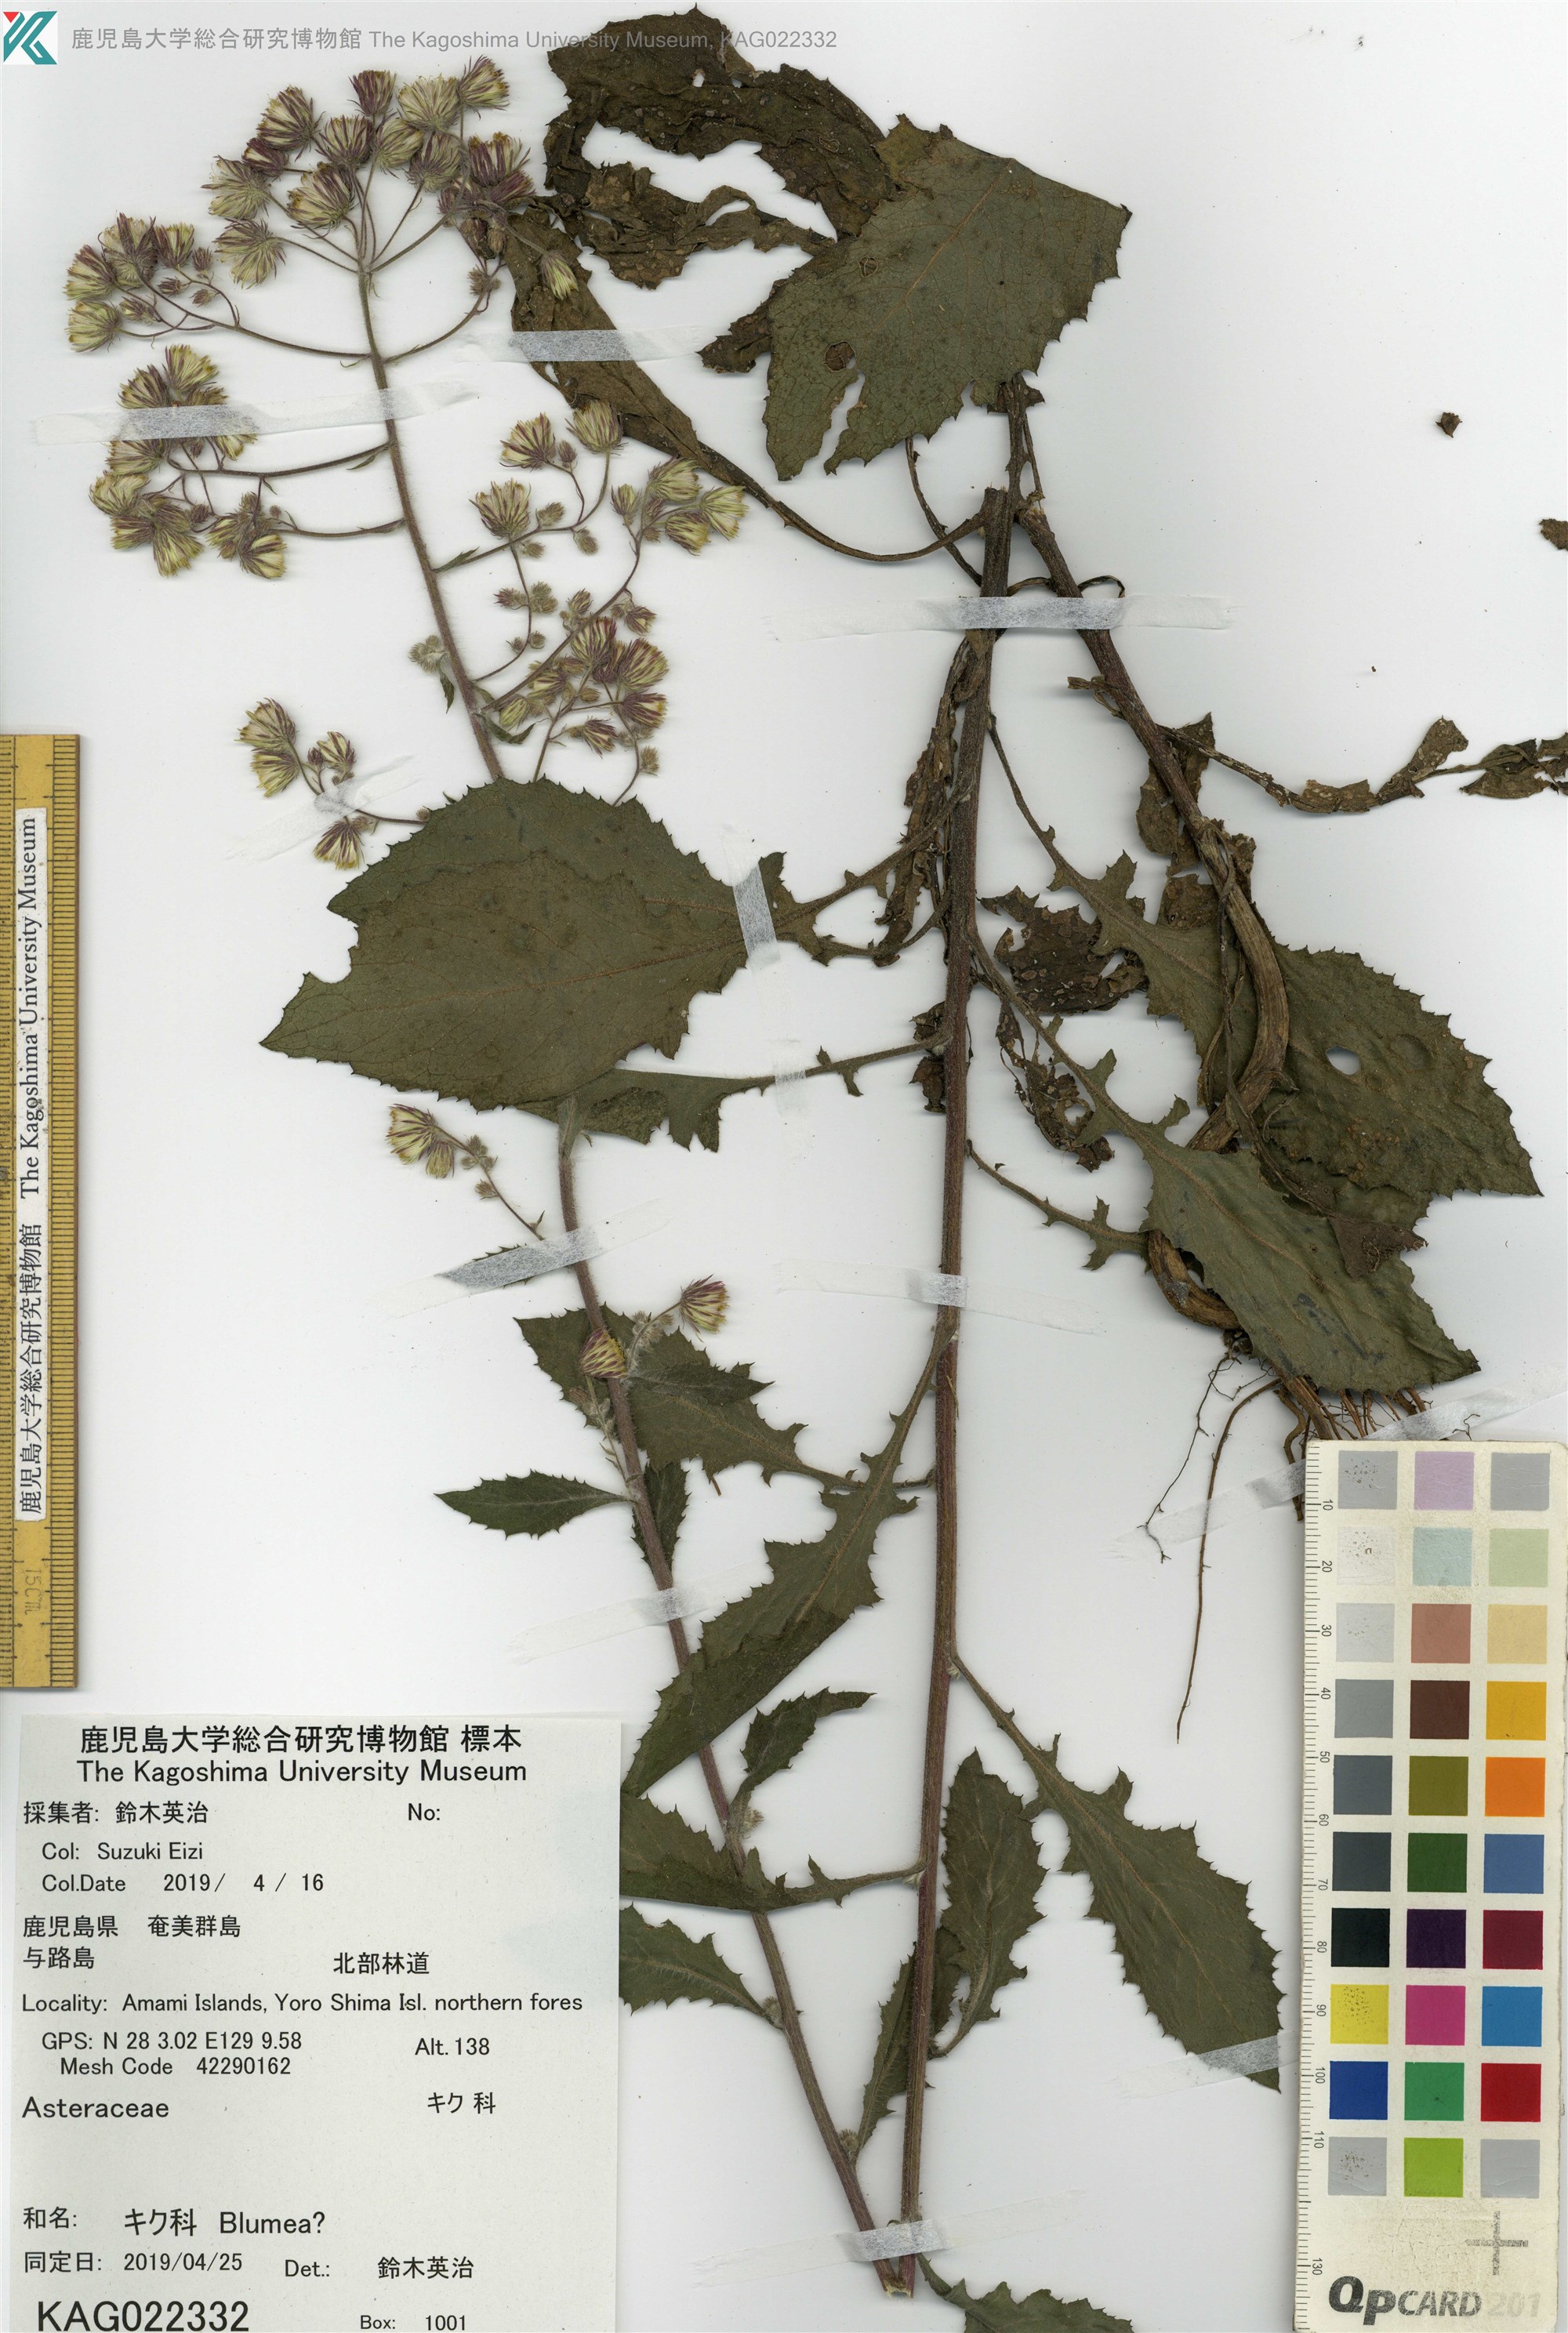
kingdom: Plantae
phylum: Tracheophyta
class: Magnoliopsida
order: Asterales
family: Asteraceae
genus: Blumea
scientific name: Blumea sinuata
